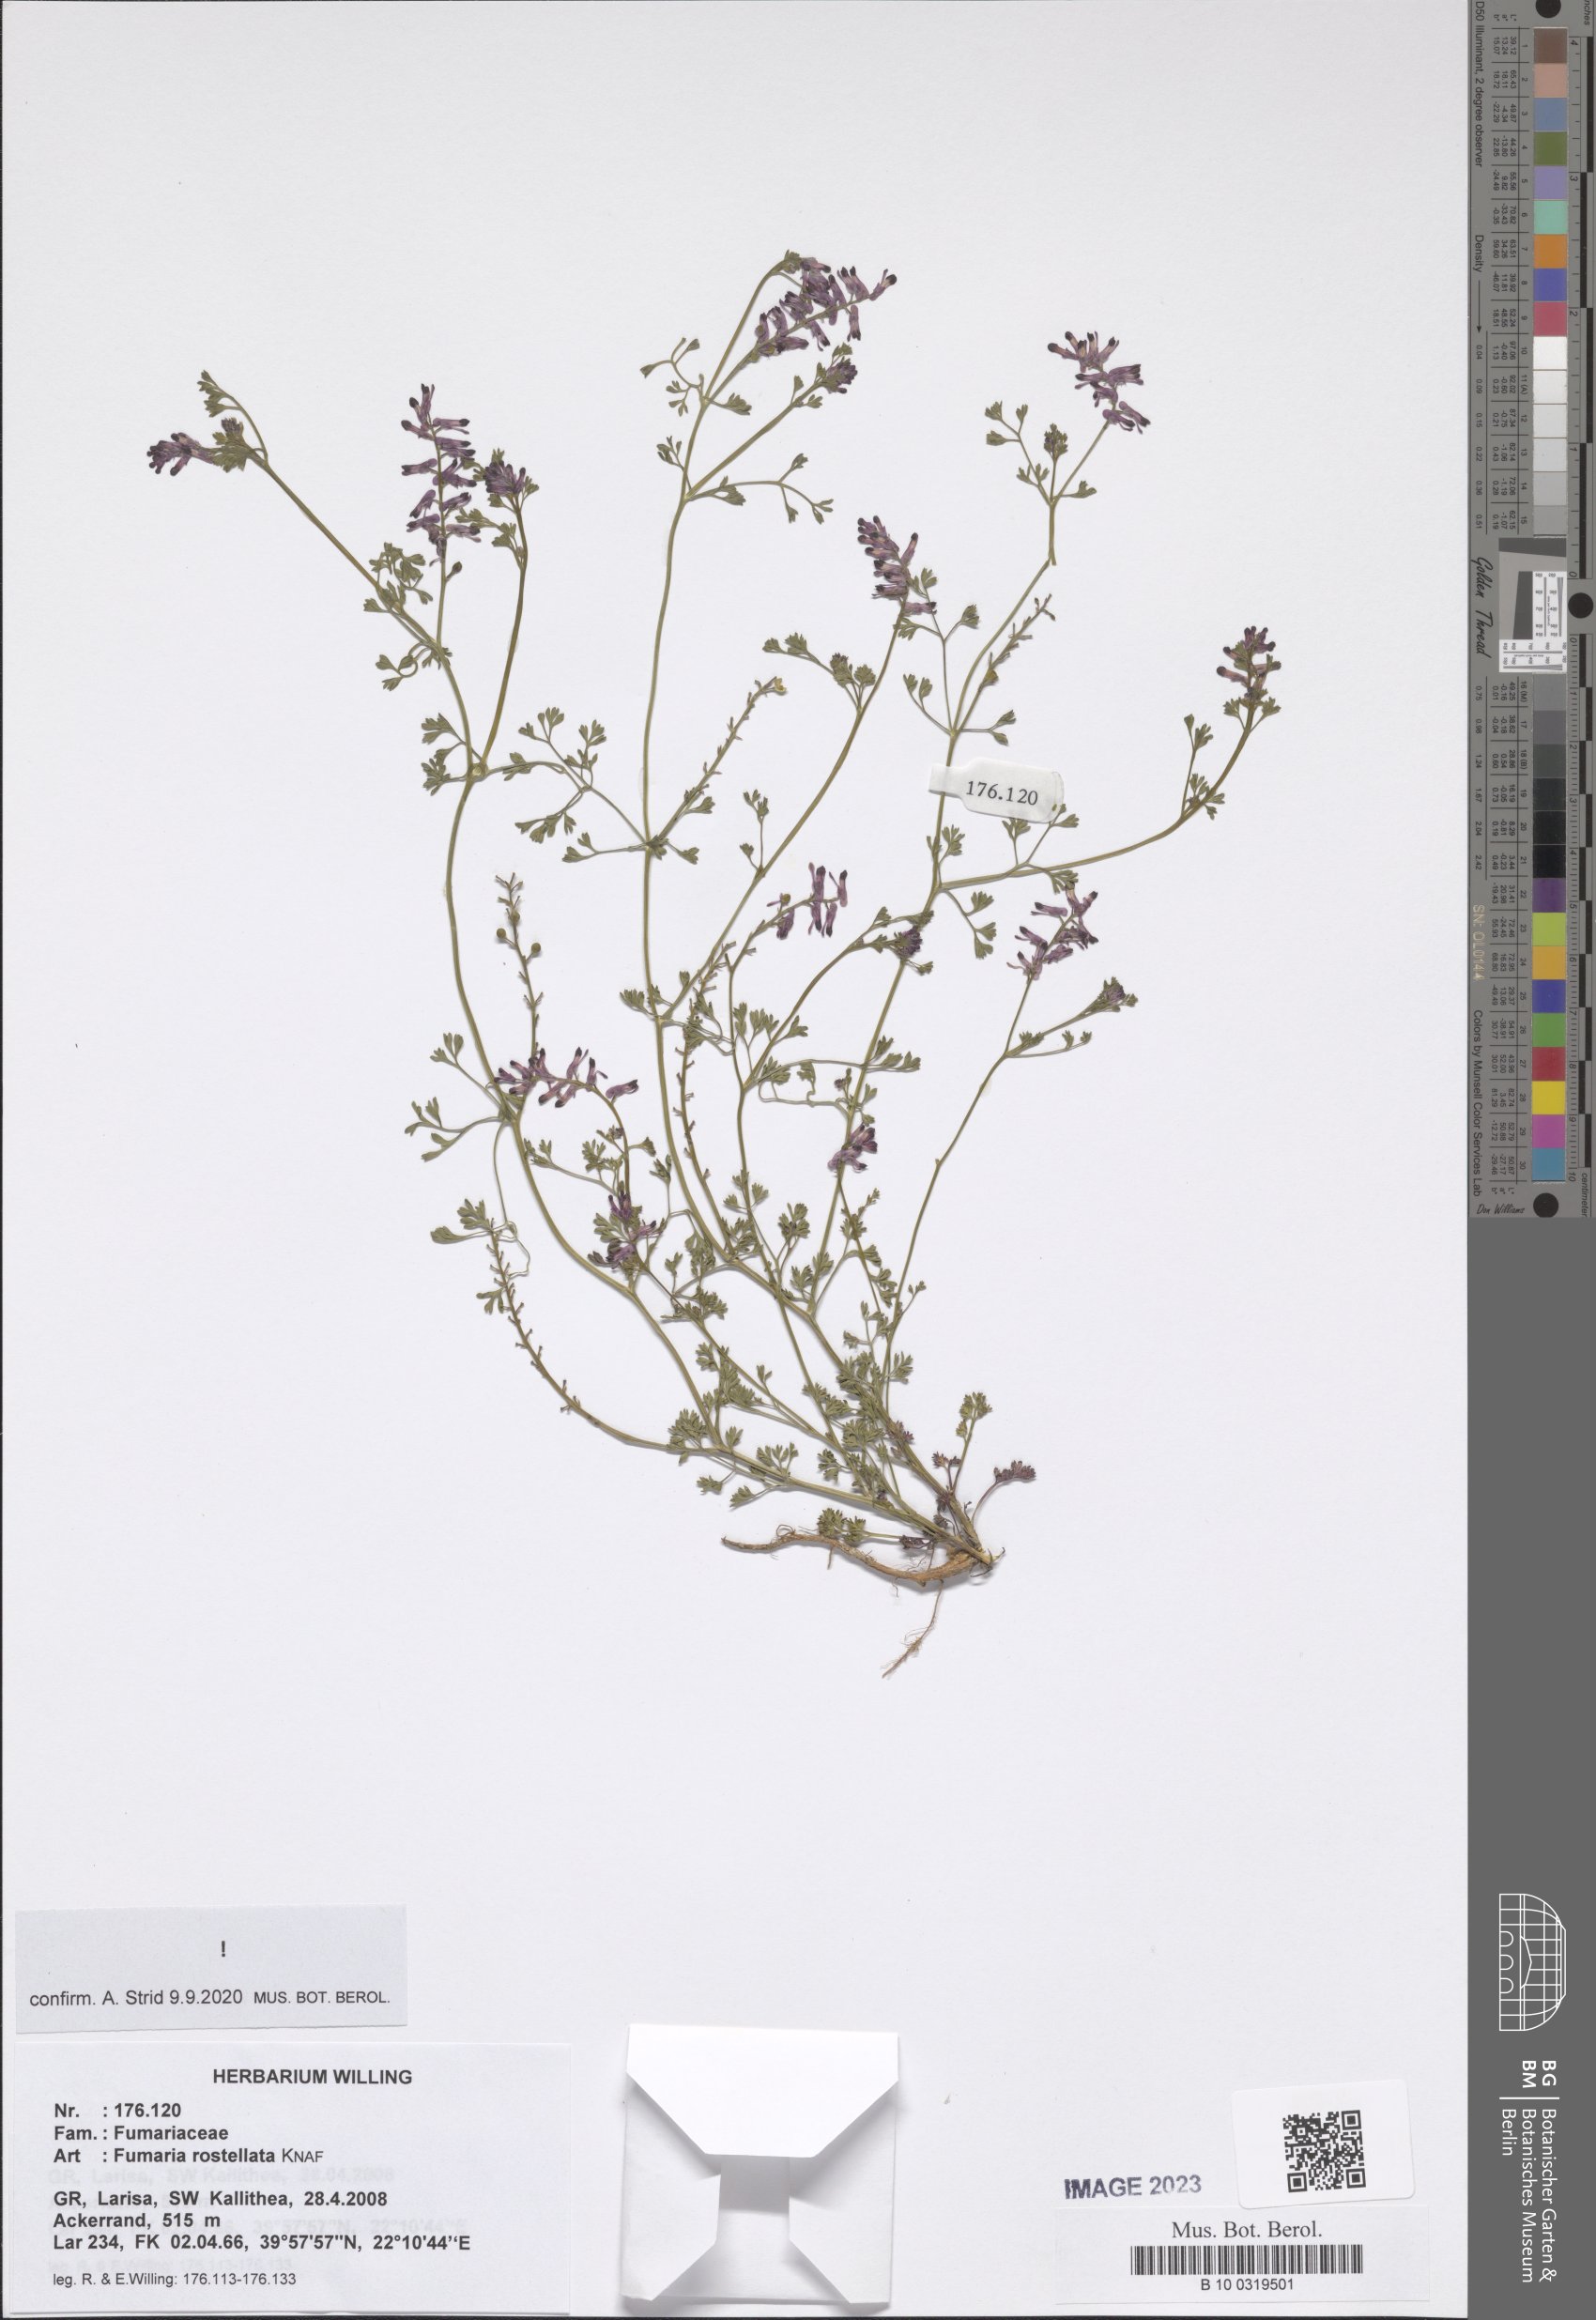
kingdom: Plantae
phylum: Tracheophyta
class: Magnoliopsida
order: Ranunculales
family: Papaveraceae
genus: Fumaria
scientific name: Fumaria rostellata
